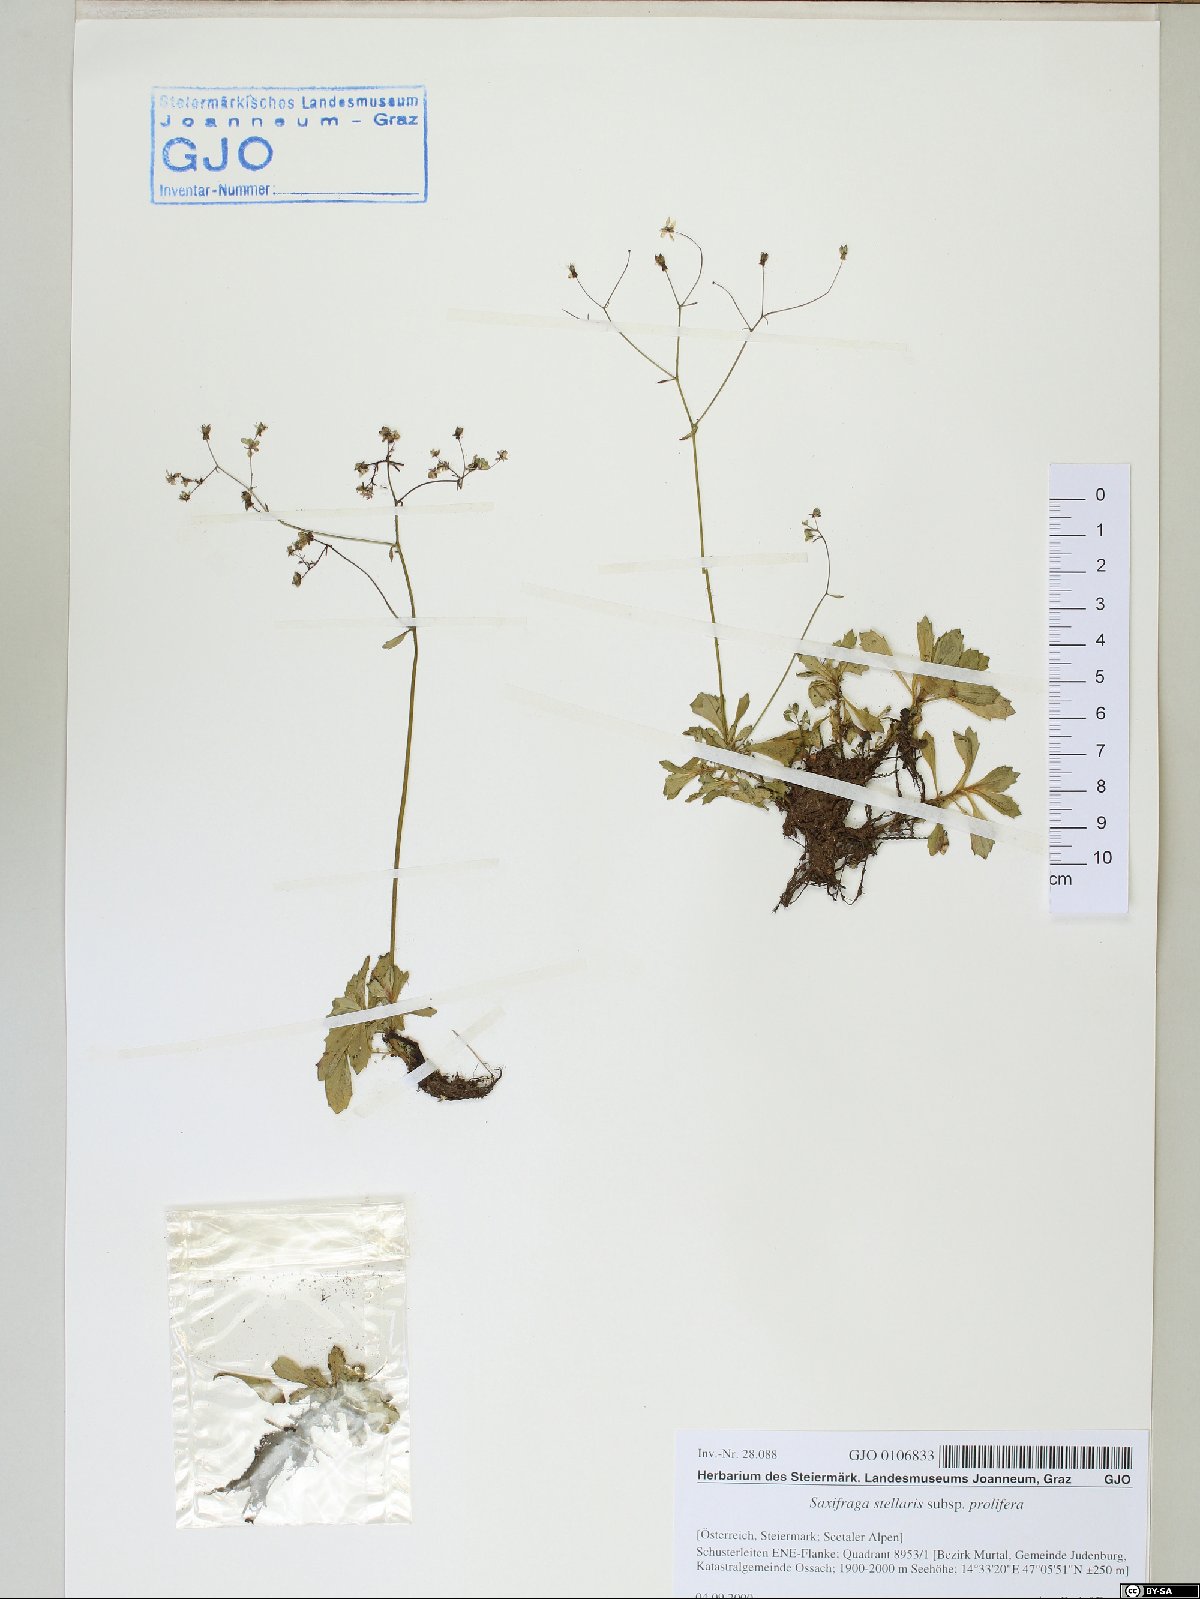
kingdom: Plantae
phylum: Tracheophyta
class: Magnoliopsida
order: Saxifragales
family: Saxifragaceae
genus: Micranthes
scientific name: Micranthes stellaris
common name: Starry saxifrage
